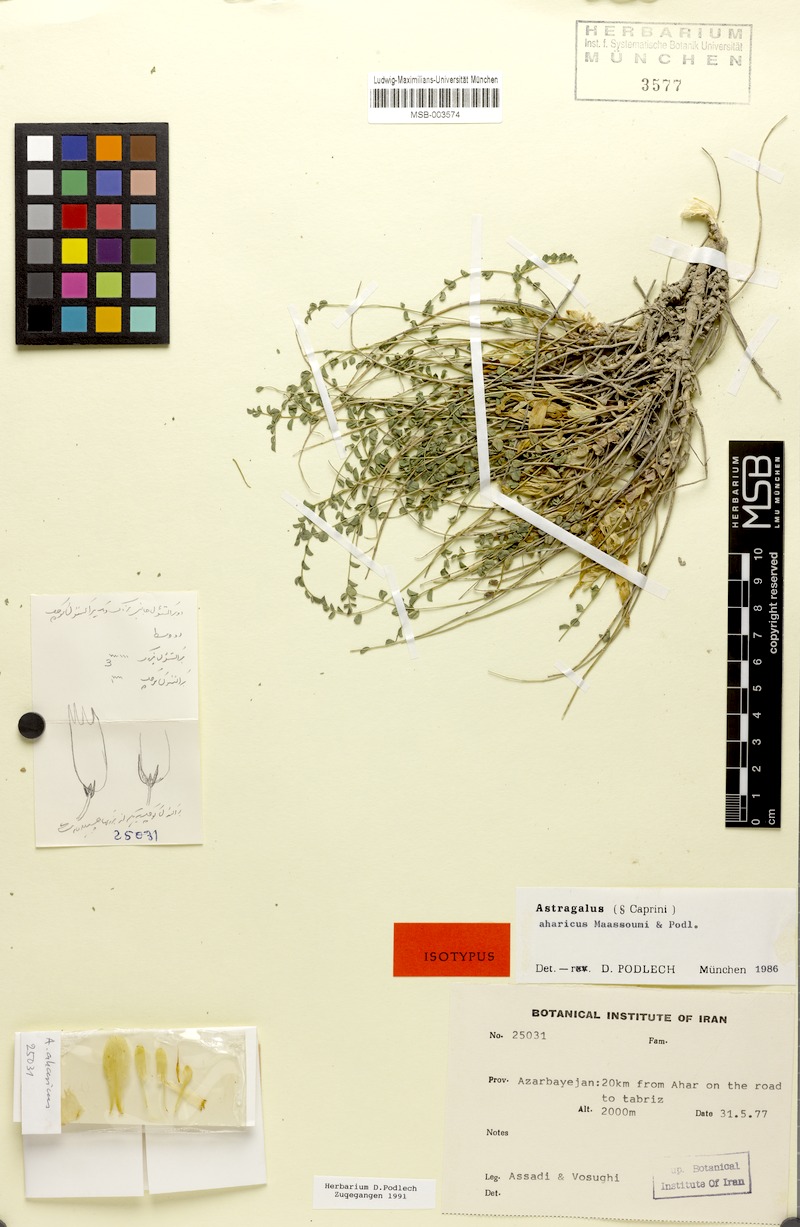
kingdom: Plantae
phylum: Tracheophyta
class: Magnoliopsida
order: Fabales
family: Fabaceae
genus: Astragalus
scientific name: Astragalus aharicus
